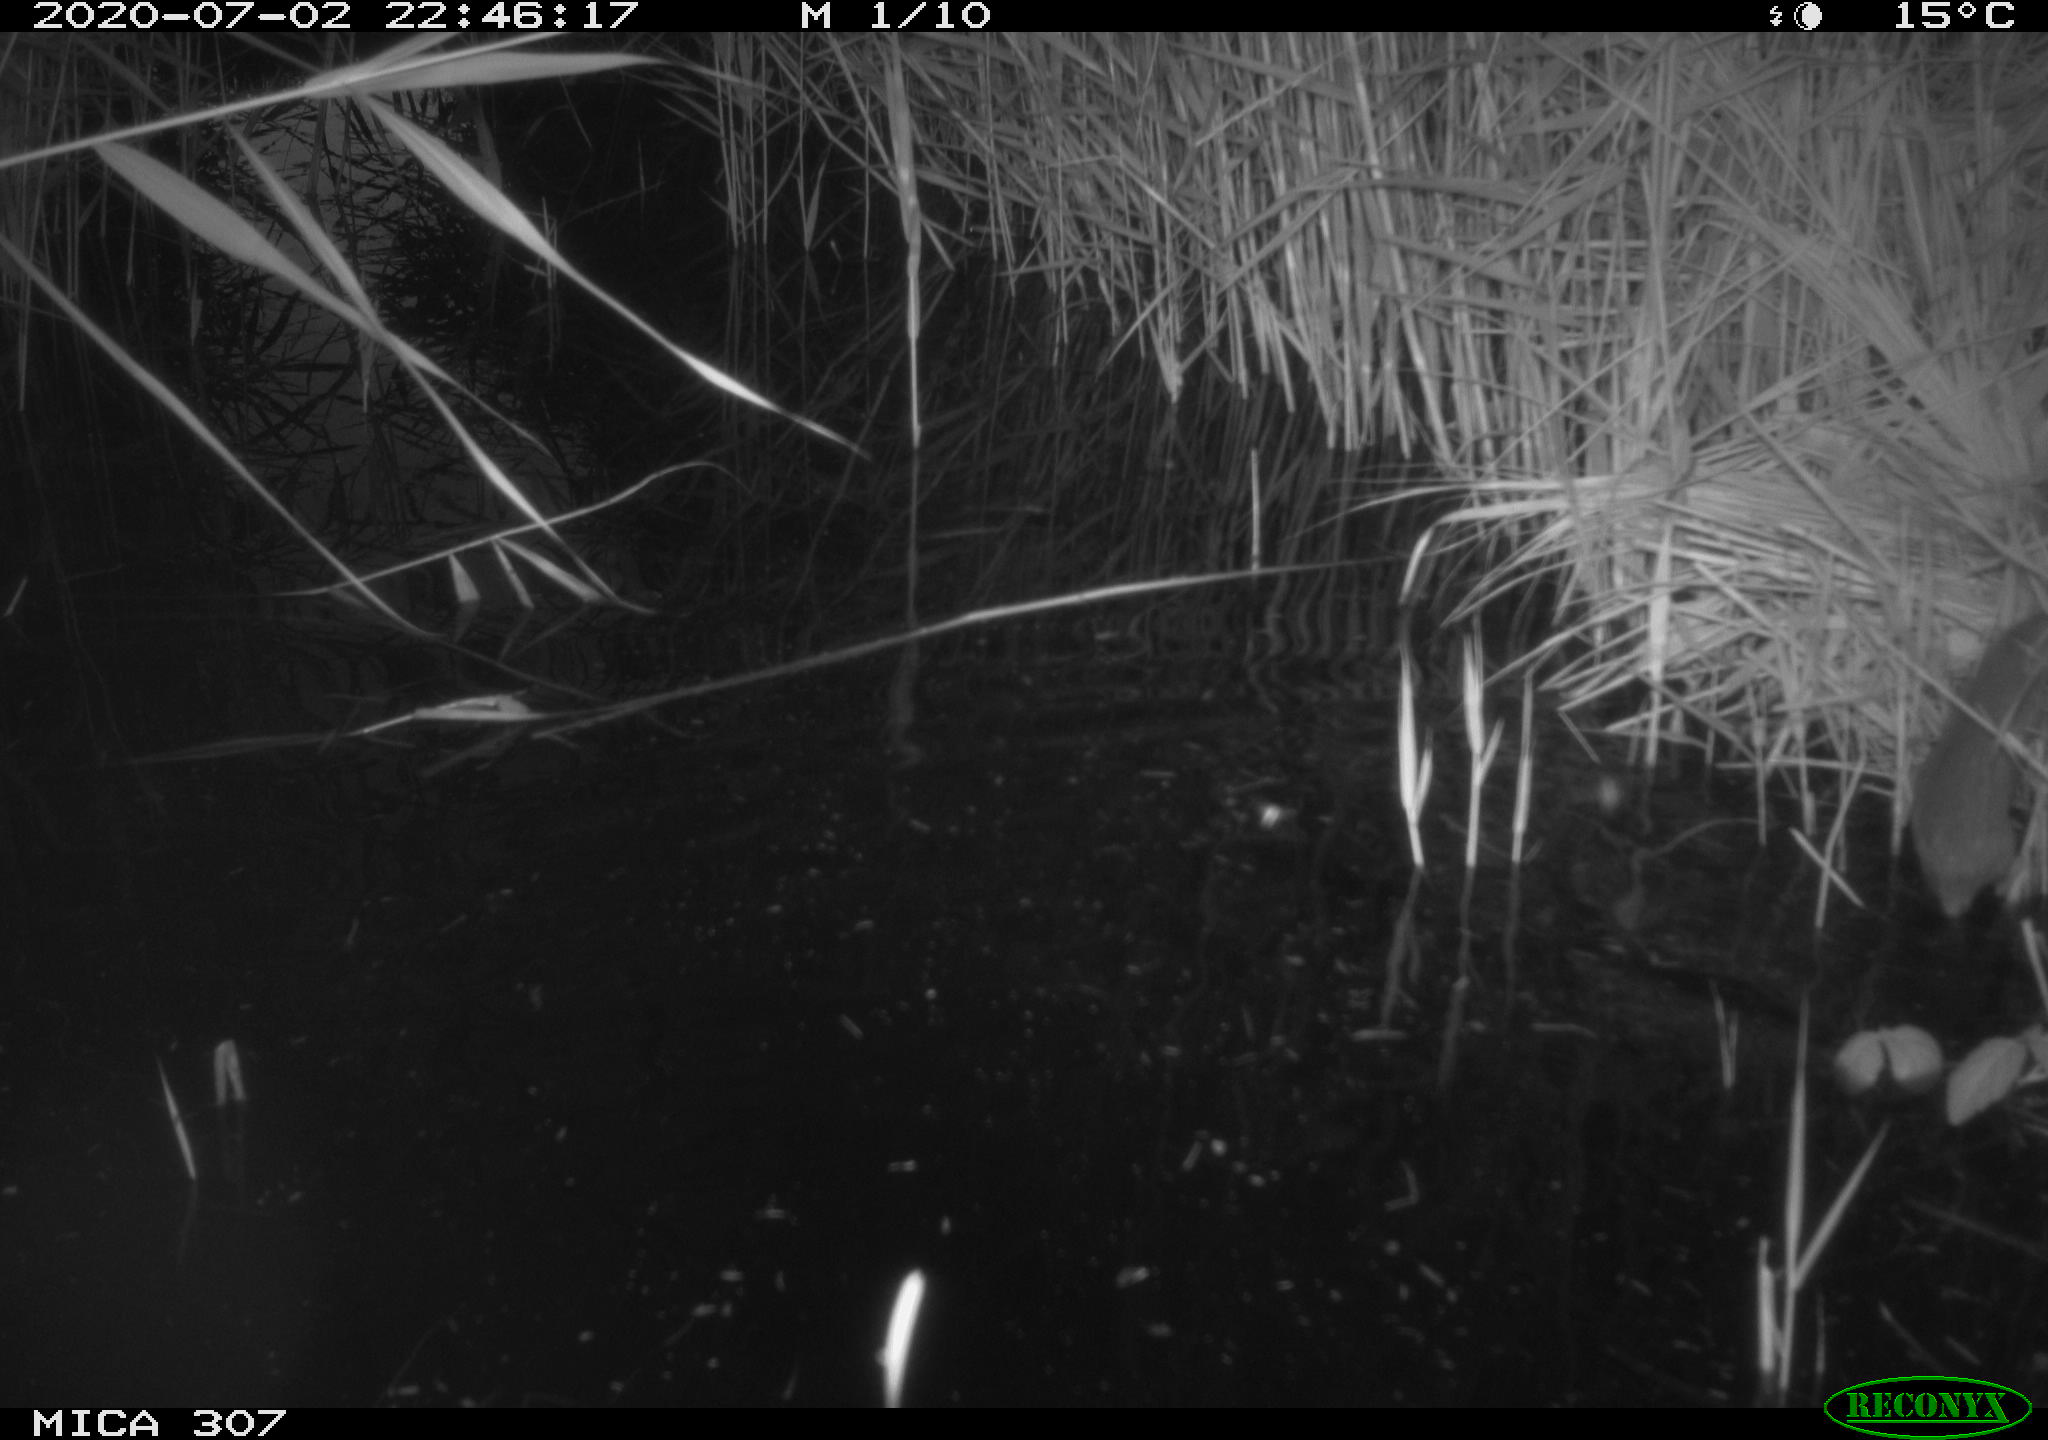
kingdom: Animalia
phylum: Chordata
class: Mammalia
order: Rodentia
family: Muridae
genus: Rattus
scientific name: Rattus norvegicus
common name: Brown rat
